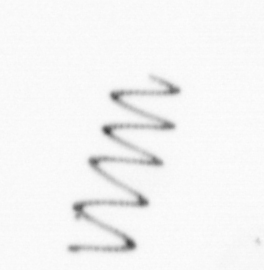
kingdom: Chromista
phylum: Ochrophyta
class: Bacillariophyceae
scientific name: Bacillariophyceae
